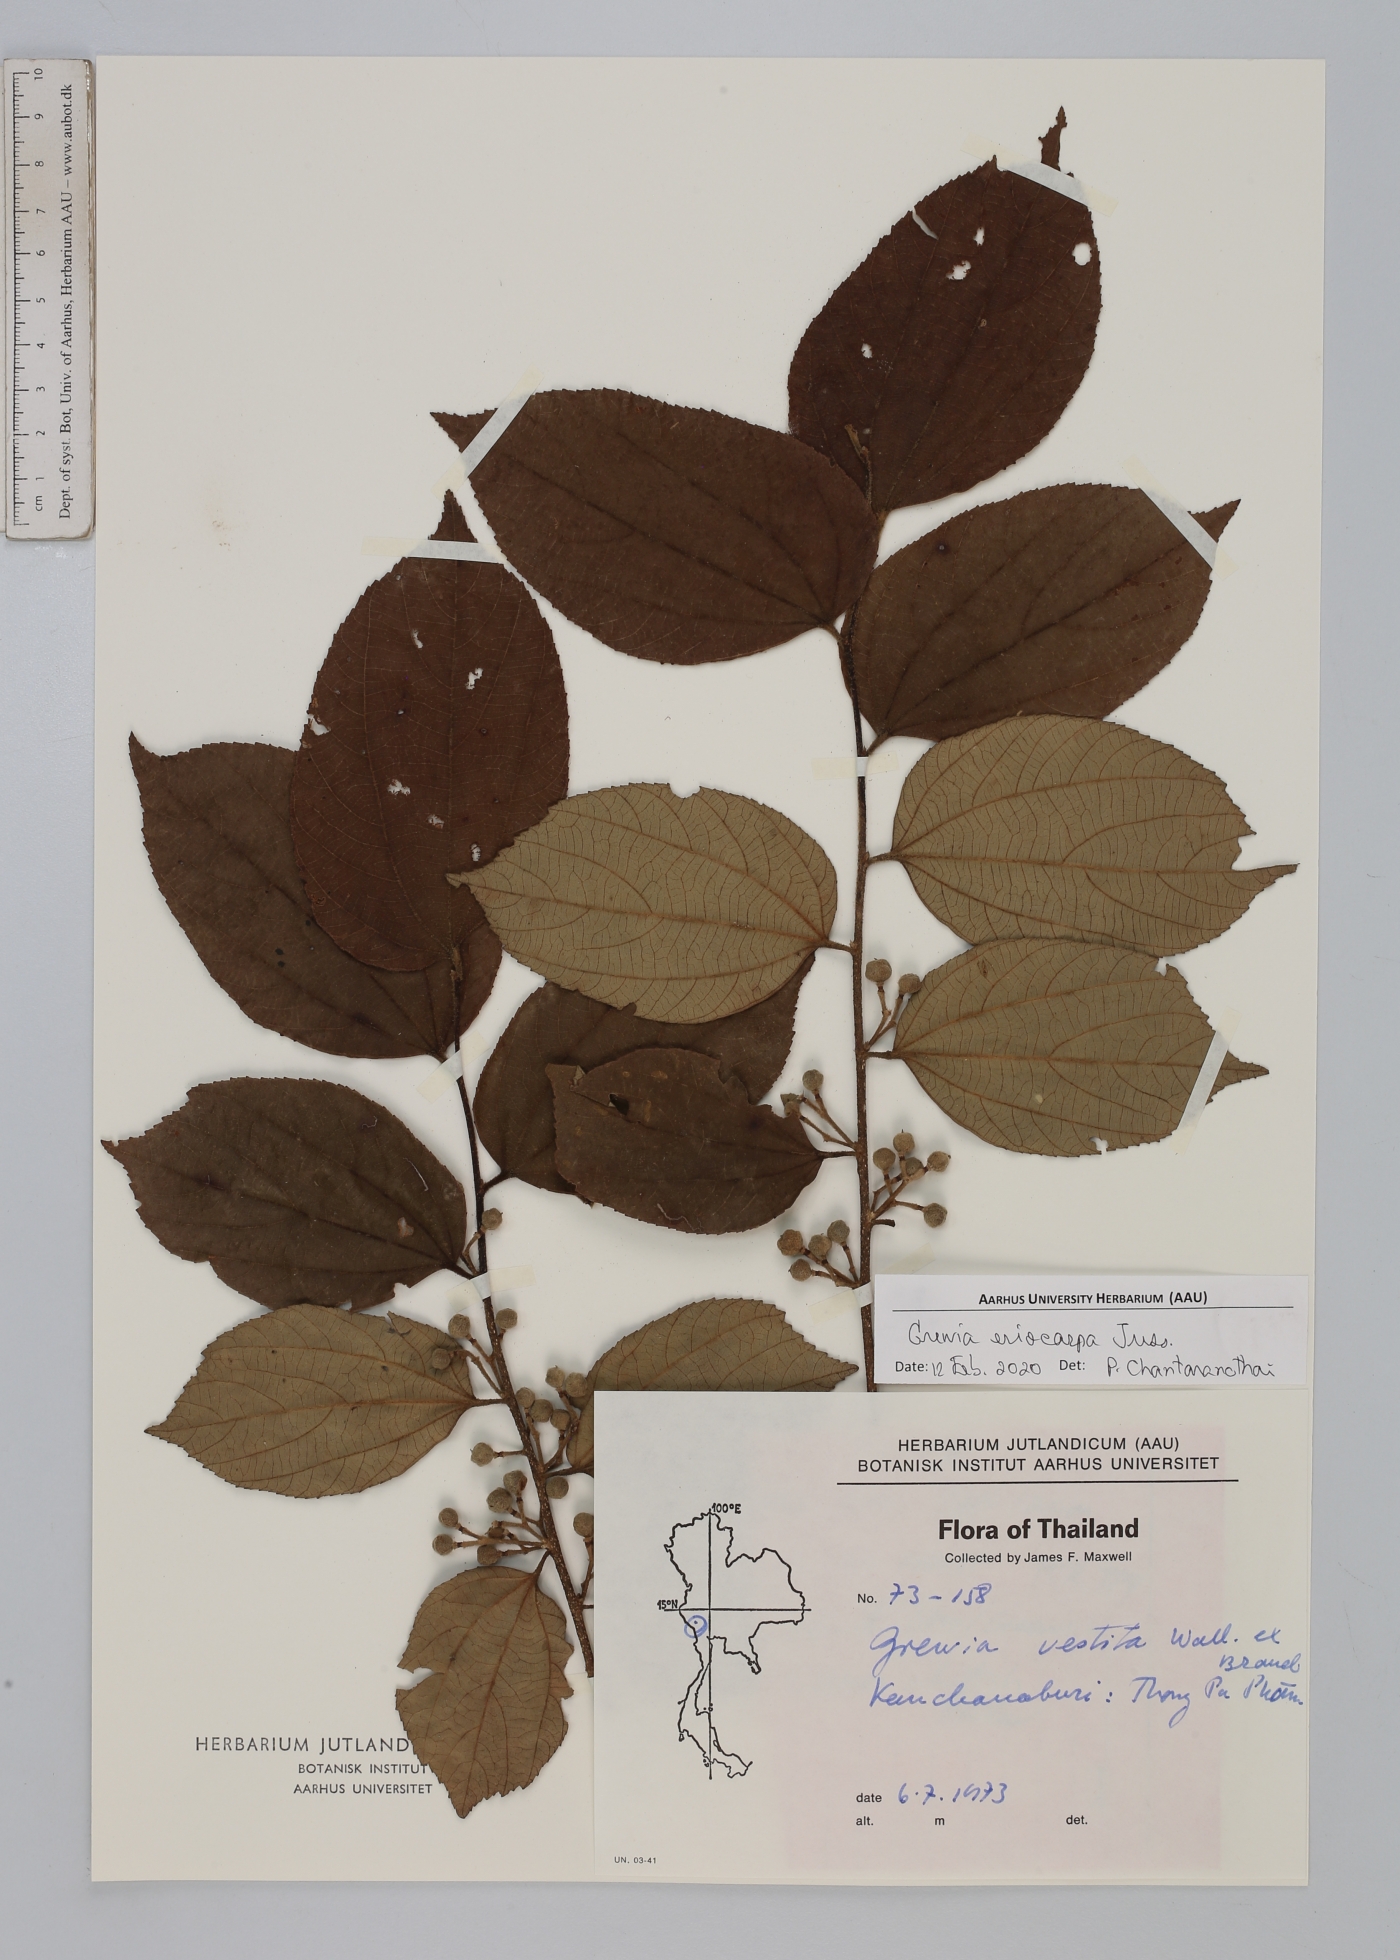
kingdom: Plantae
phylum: Tracheophyta
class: Magnoliopsida
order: Malvales
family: Malvaceae
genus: Grewia
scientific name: Grewia eriocarpa
